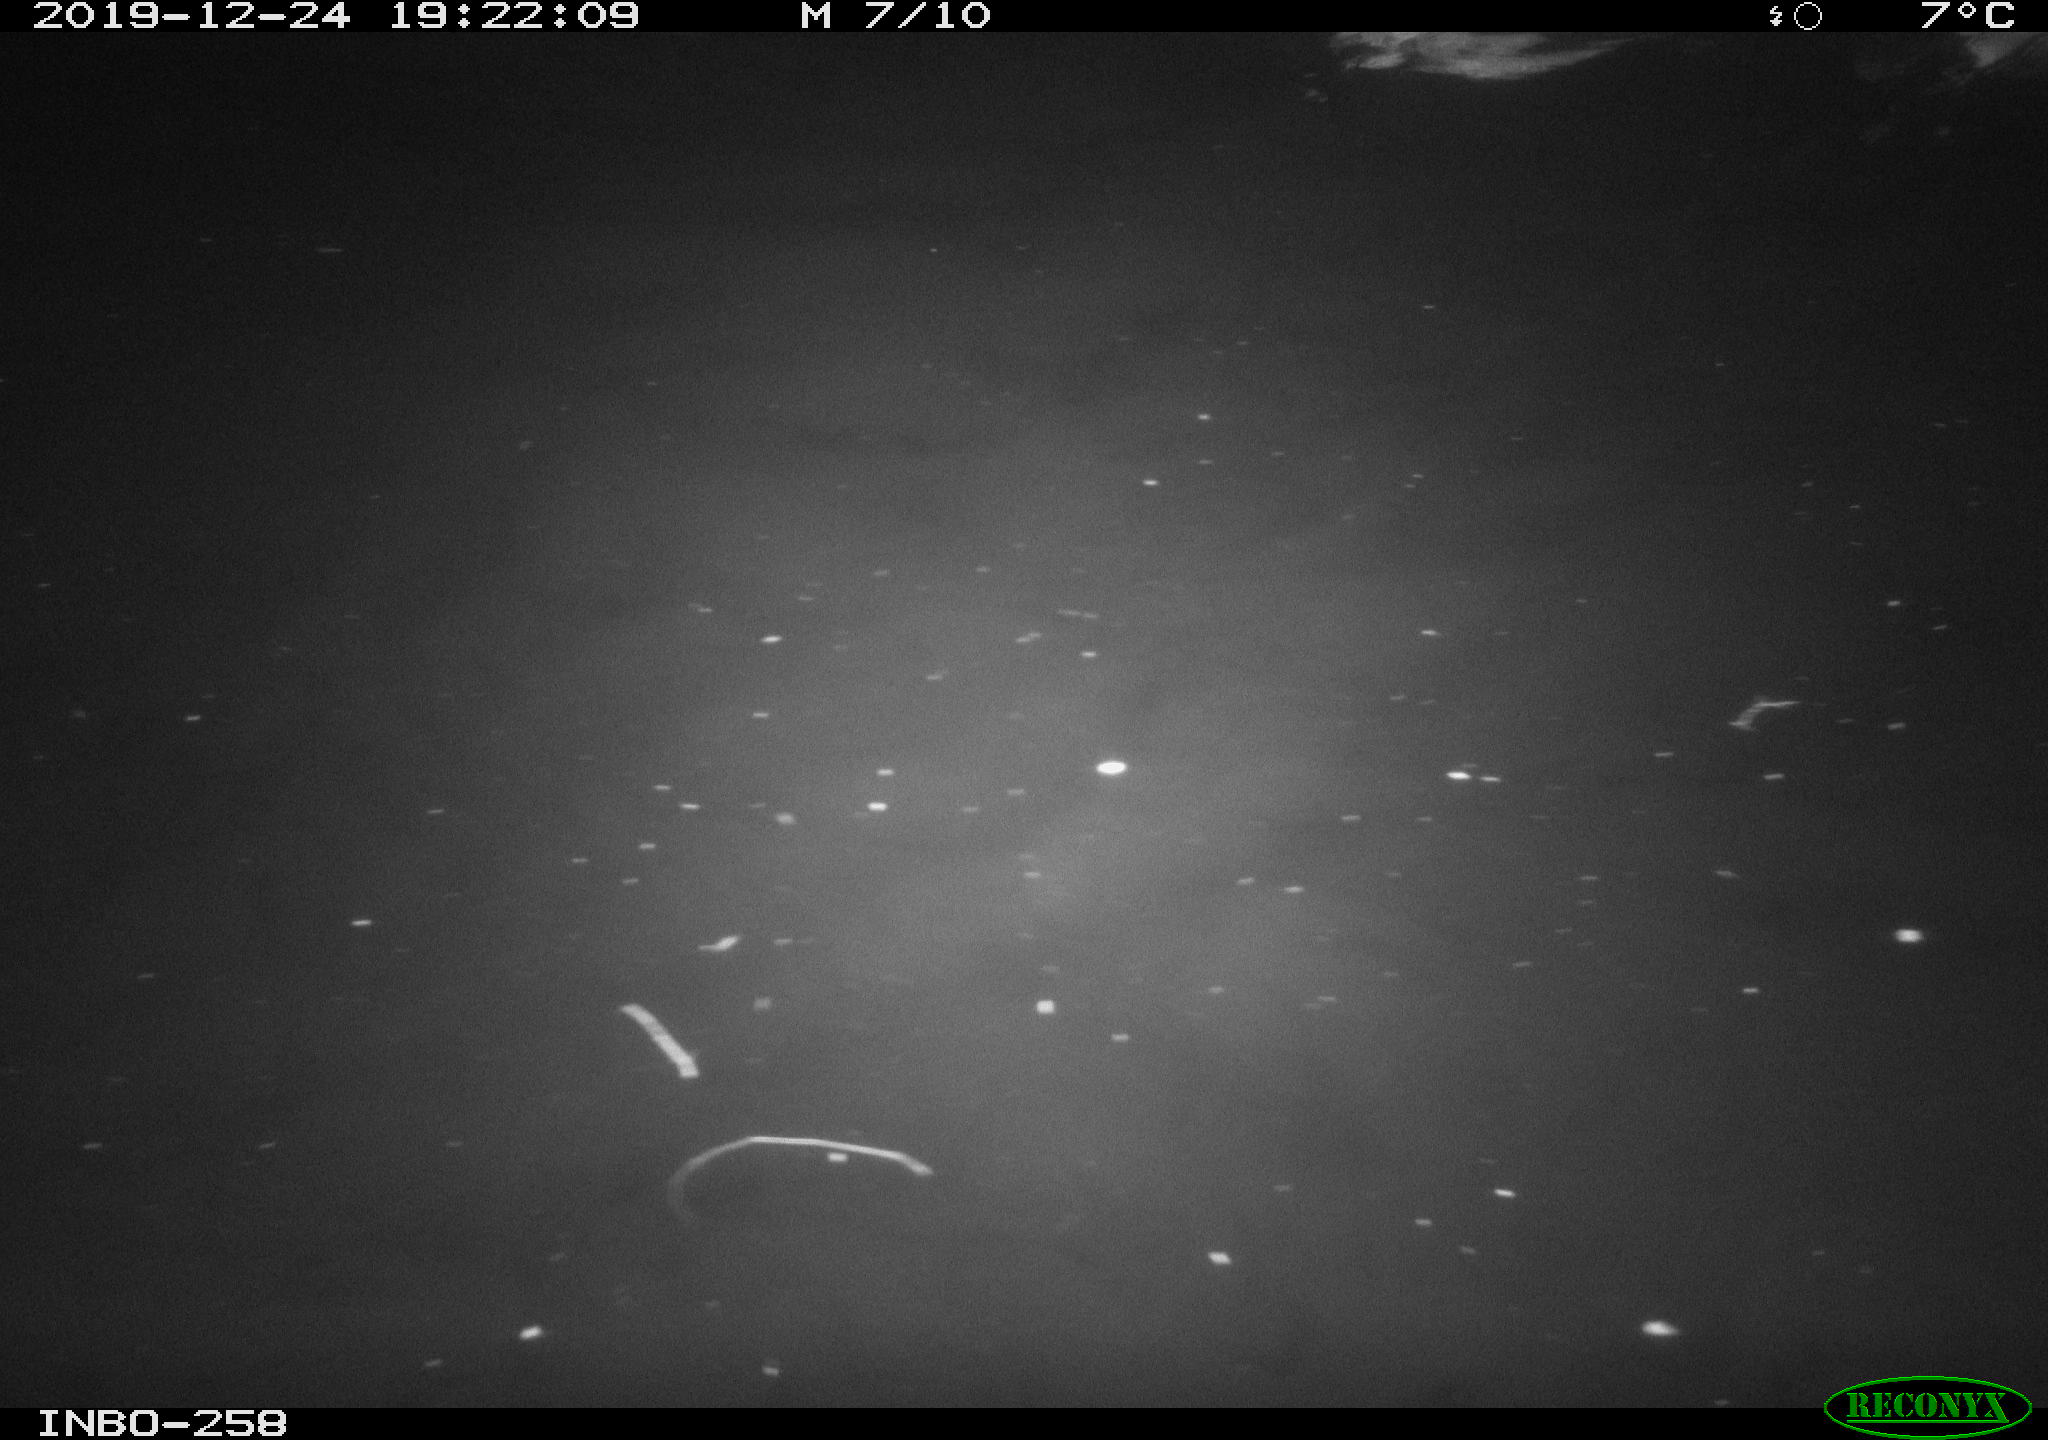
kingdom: Animalia
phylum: Chordata
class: Aves
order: Anseriformes
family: Anatidae
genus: Anas
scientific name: Anas platyrhynchos
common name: Mallard
